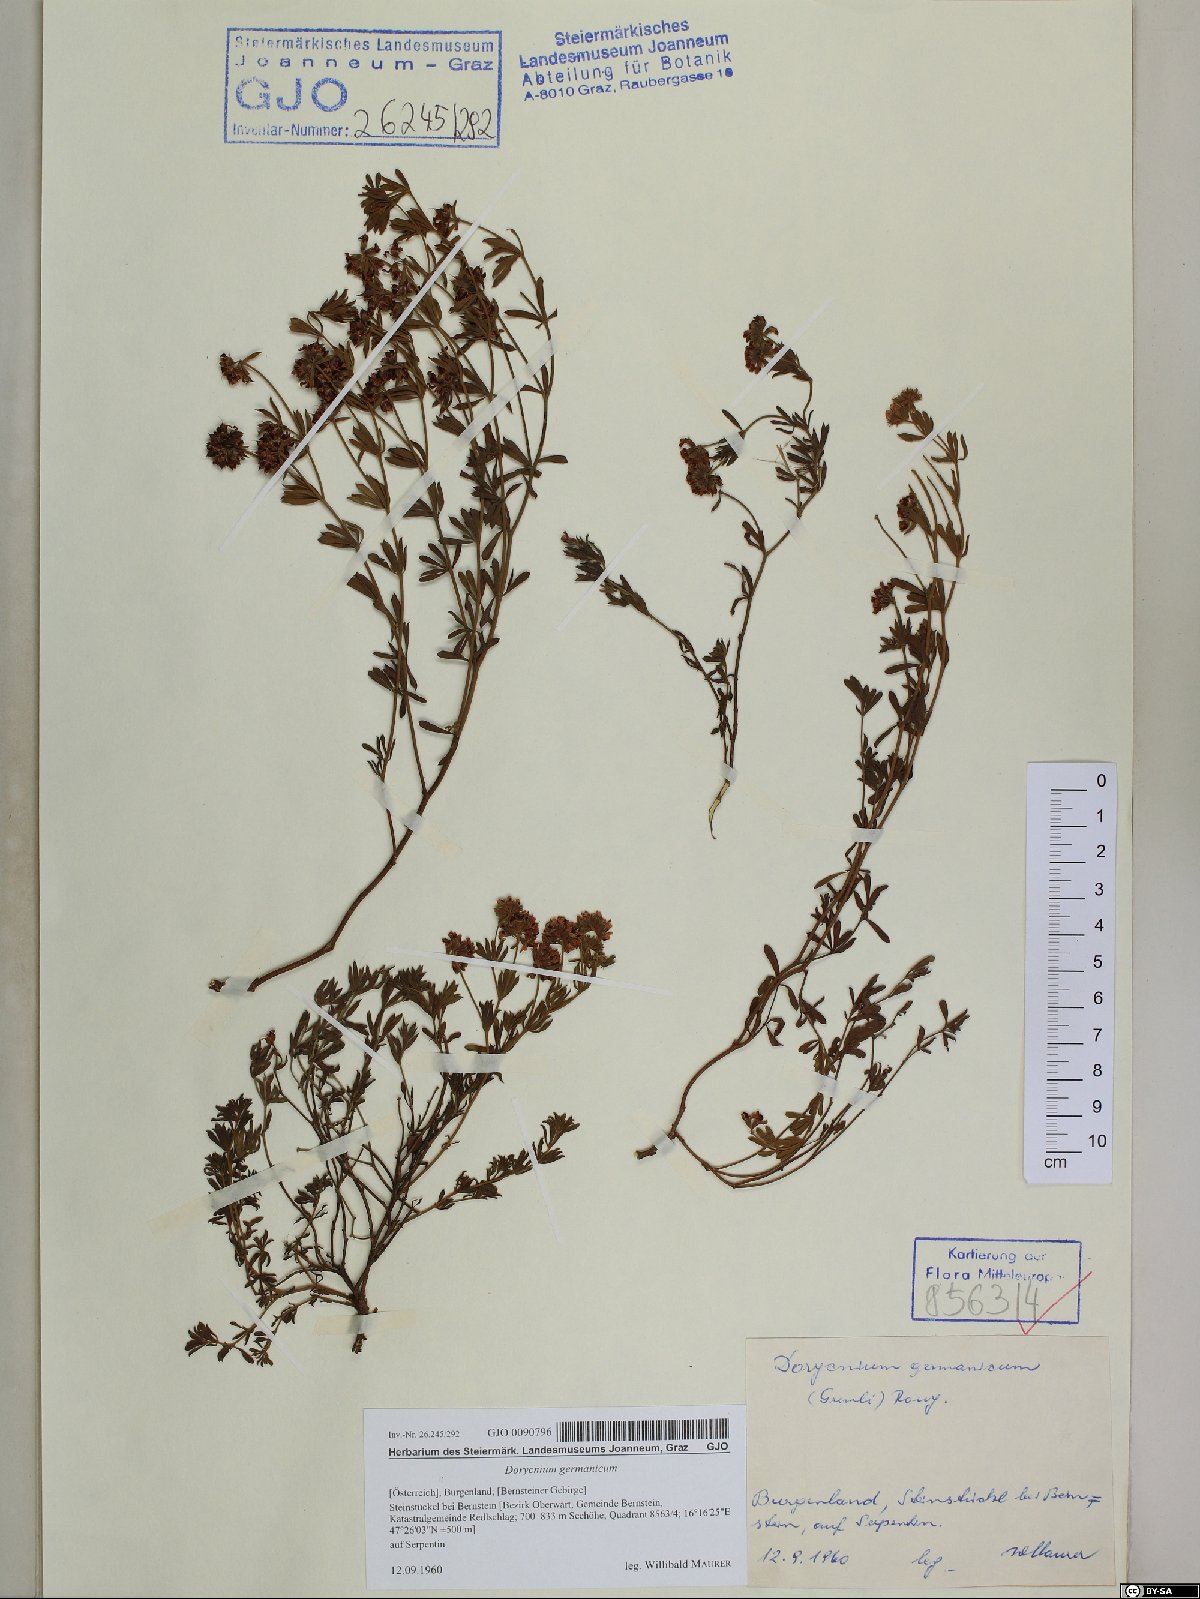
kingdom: Plantae
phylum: Tracheophyta
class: Magnoliopsida
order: Fabales
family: Fabaceae
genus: Lotus
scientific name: Lotus germanicus
